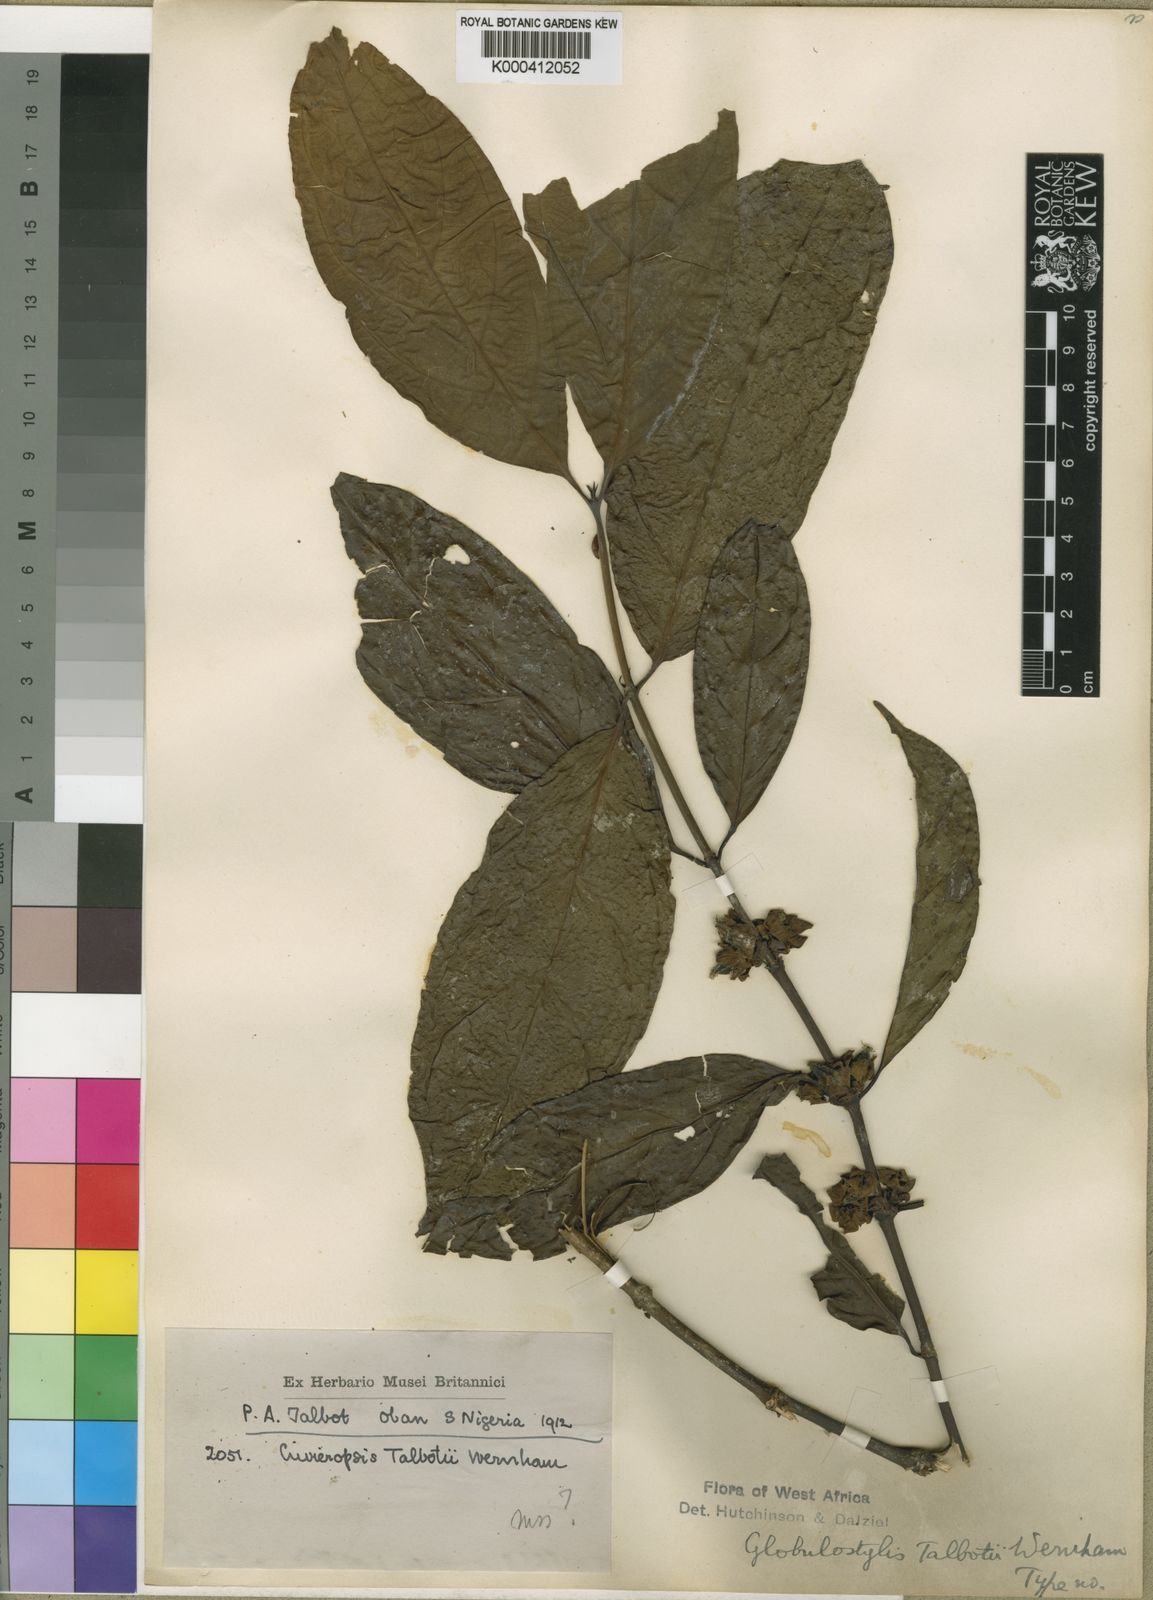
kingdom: Plantae
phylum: Tracheophyta
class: Magnoliopsida
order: Gentianales
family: Rubiaceae
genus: Cuviera
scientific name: Cuviera talbotii
